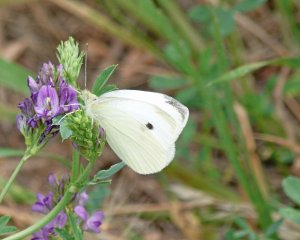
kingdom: Animalia
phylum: Arthropoda
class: Insecta
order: Lepidoptera
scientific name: Lepidoptera
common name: Butterflies
